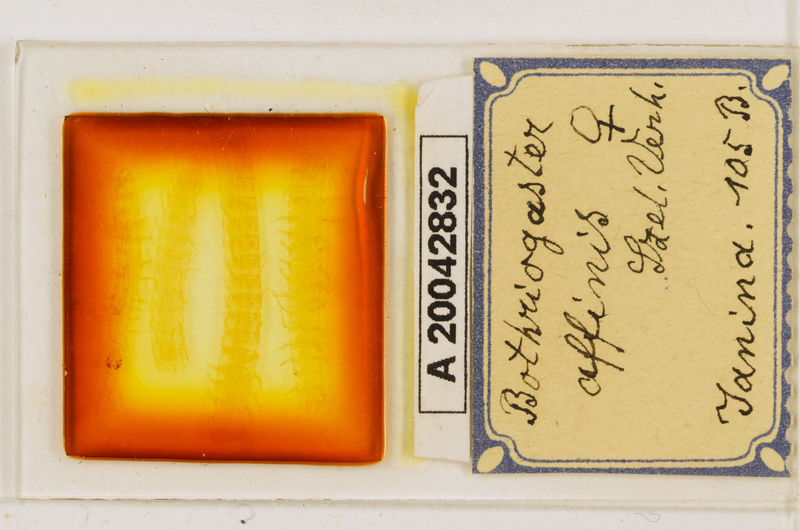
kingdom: Animalia
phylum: Arthropoda
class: Chilopoda
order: Geophilomorpha
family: Himantariidae
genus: Bothriogaster
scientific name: Bothriogaster signata
